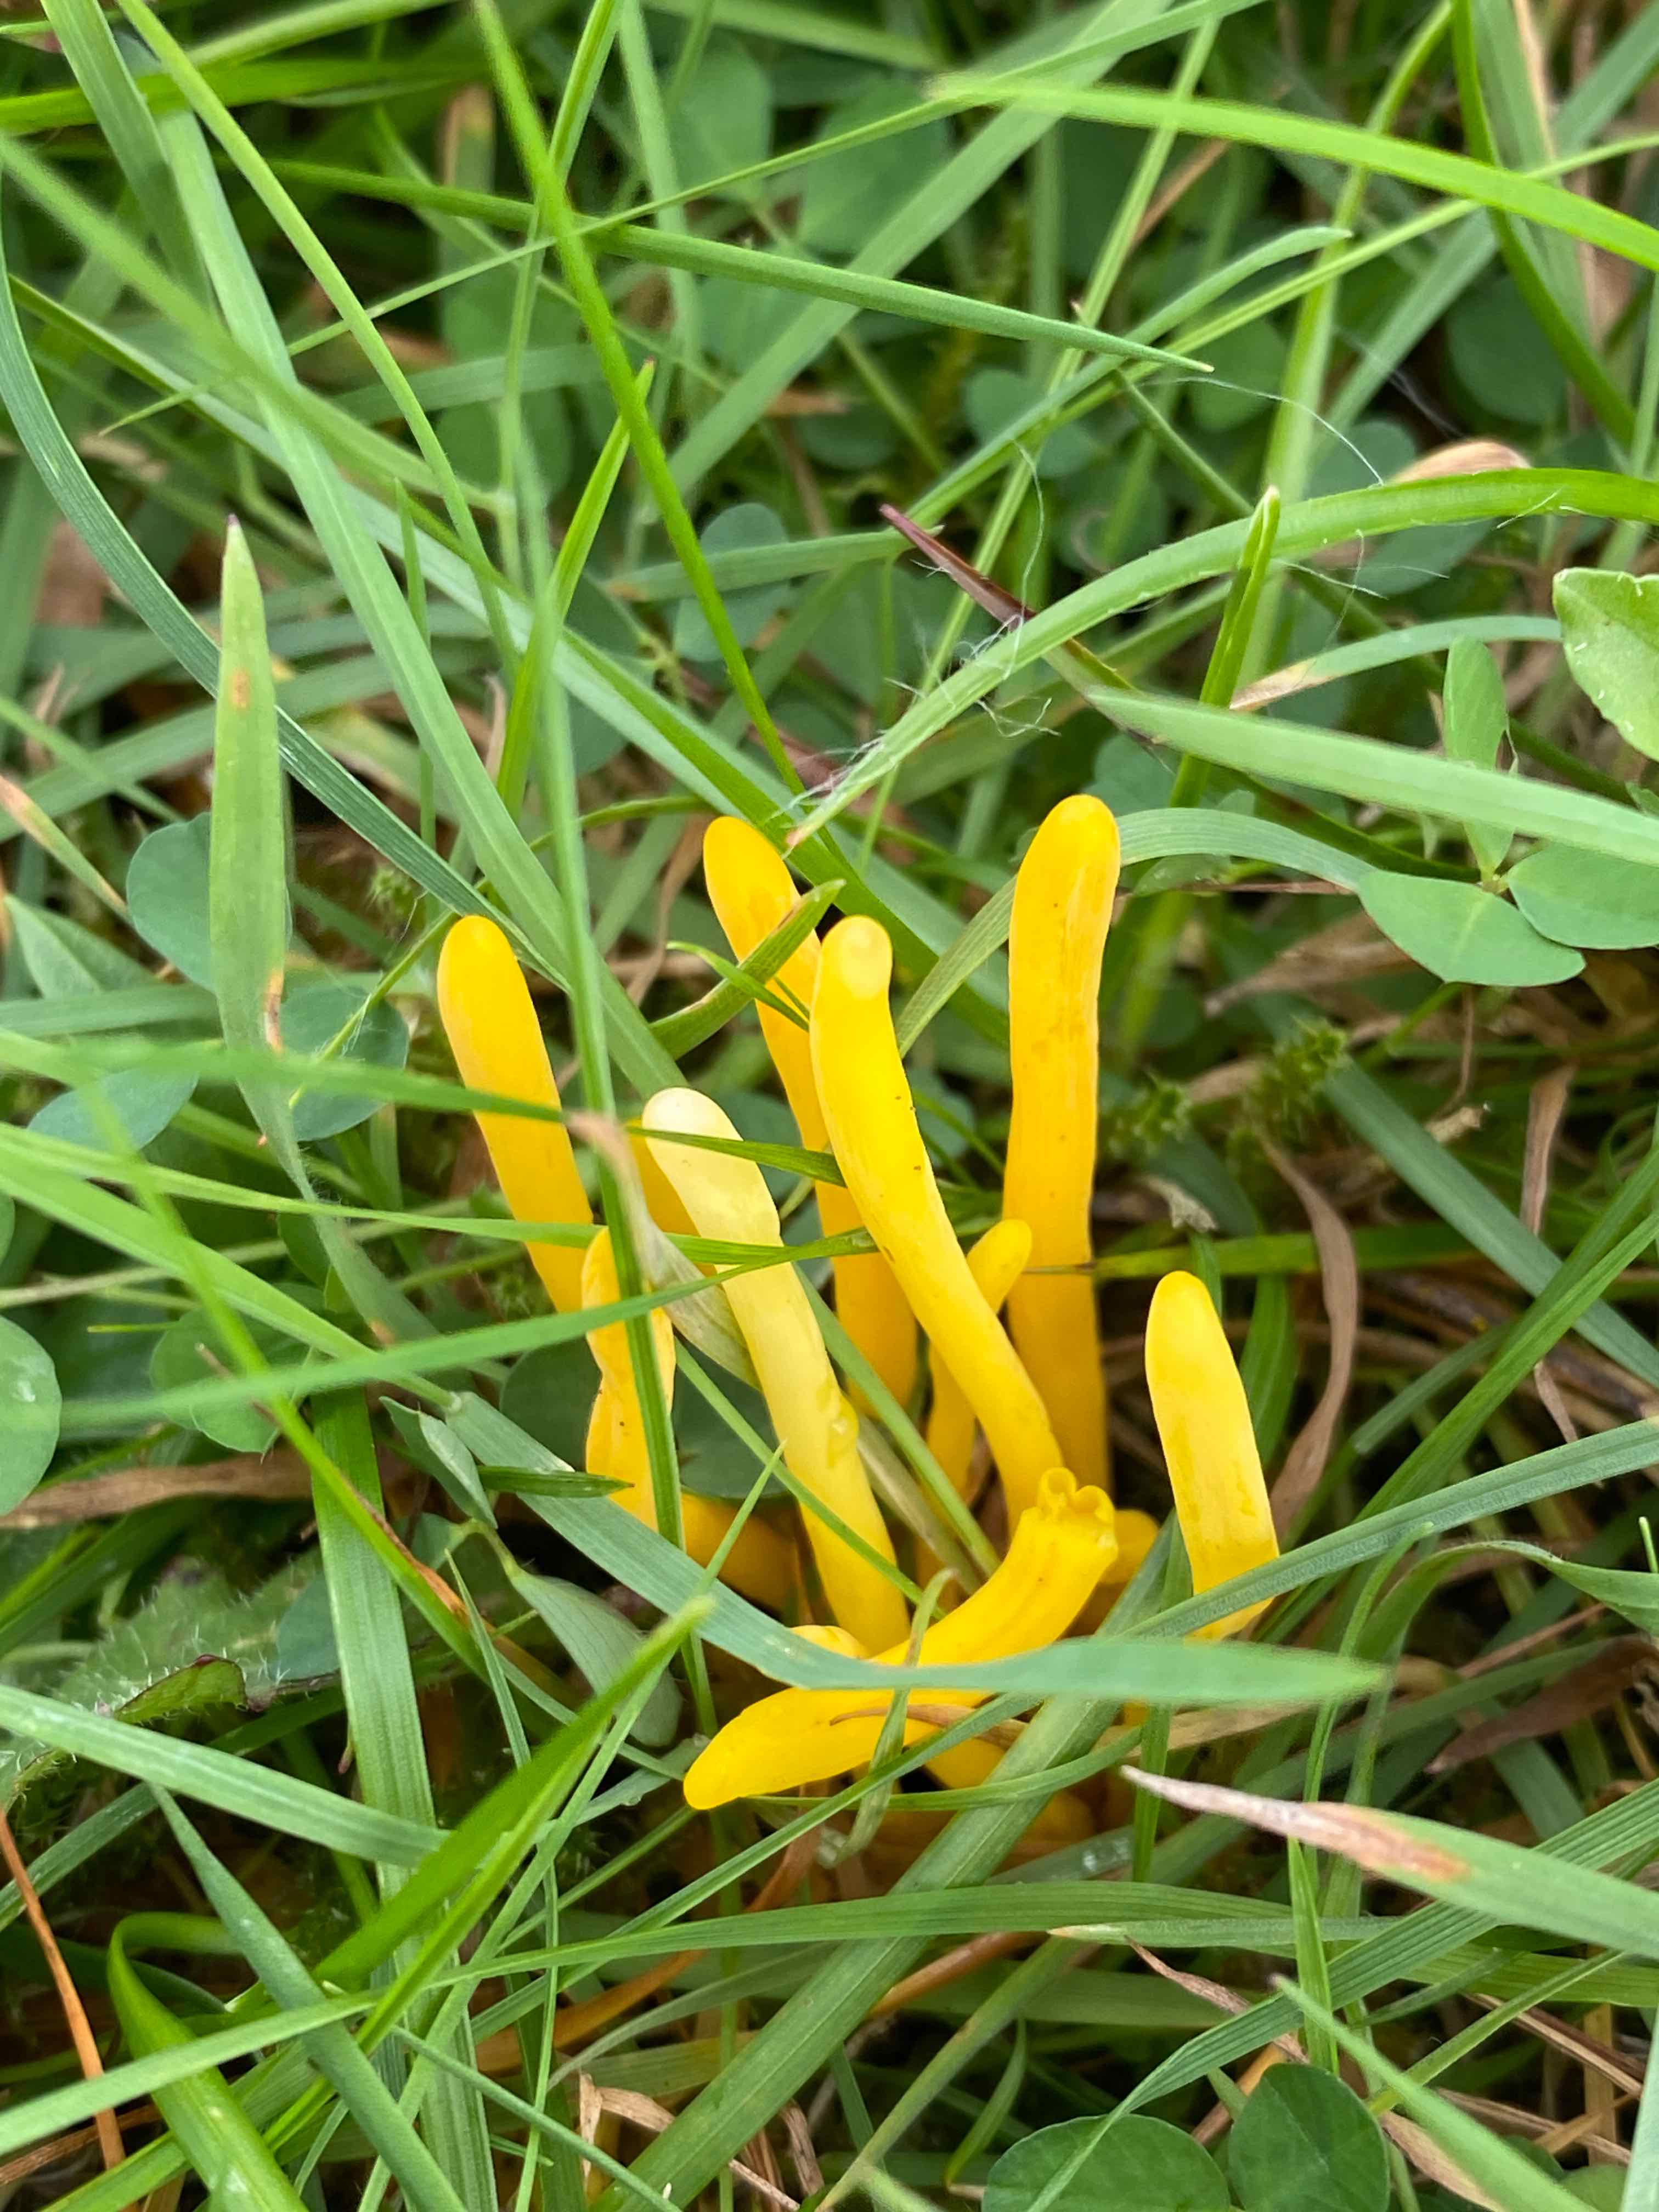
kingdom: Fungi
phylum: Basidiomycota
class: Agaricomycetes
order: Agaricales
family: Clavariaceae
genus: Clavulinopsis
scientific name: Clavulinopsis
